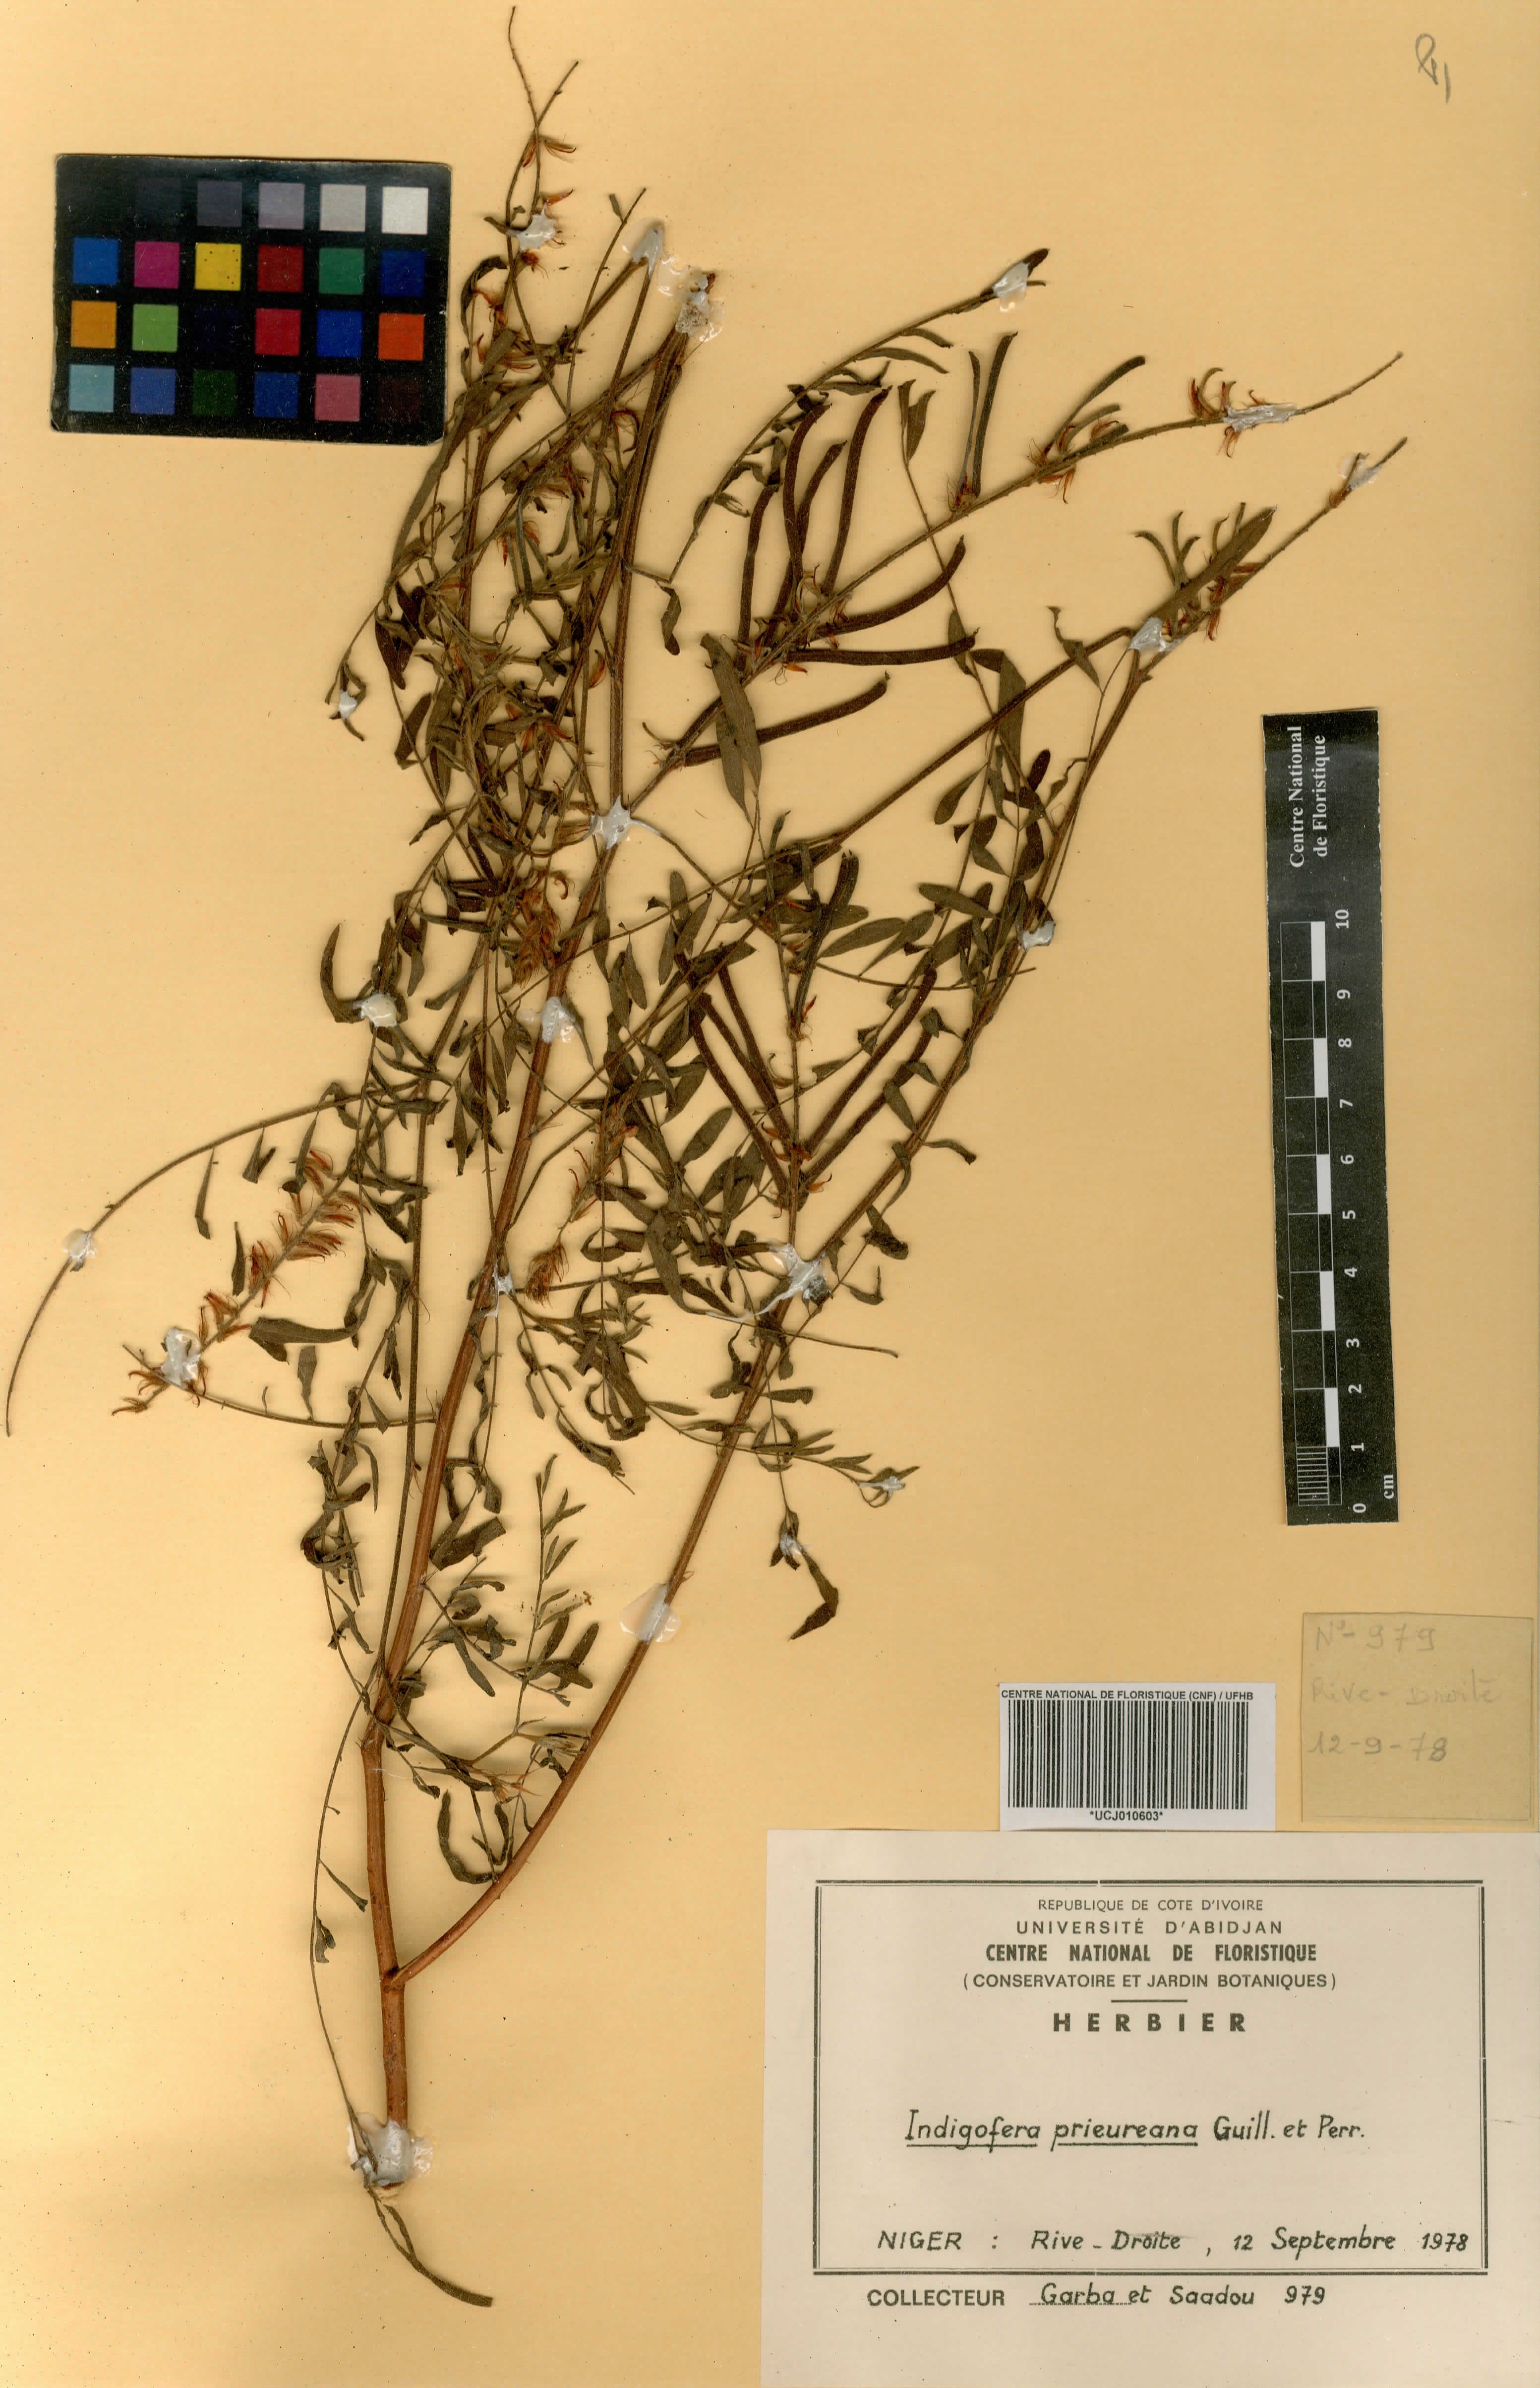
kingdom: Plantae
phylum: Tracheophyta
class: Magnoliopsida
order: Fabales
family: Fabaceae
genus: Indigofera
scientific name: Indigofera prieureana
